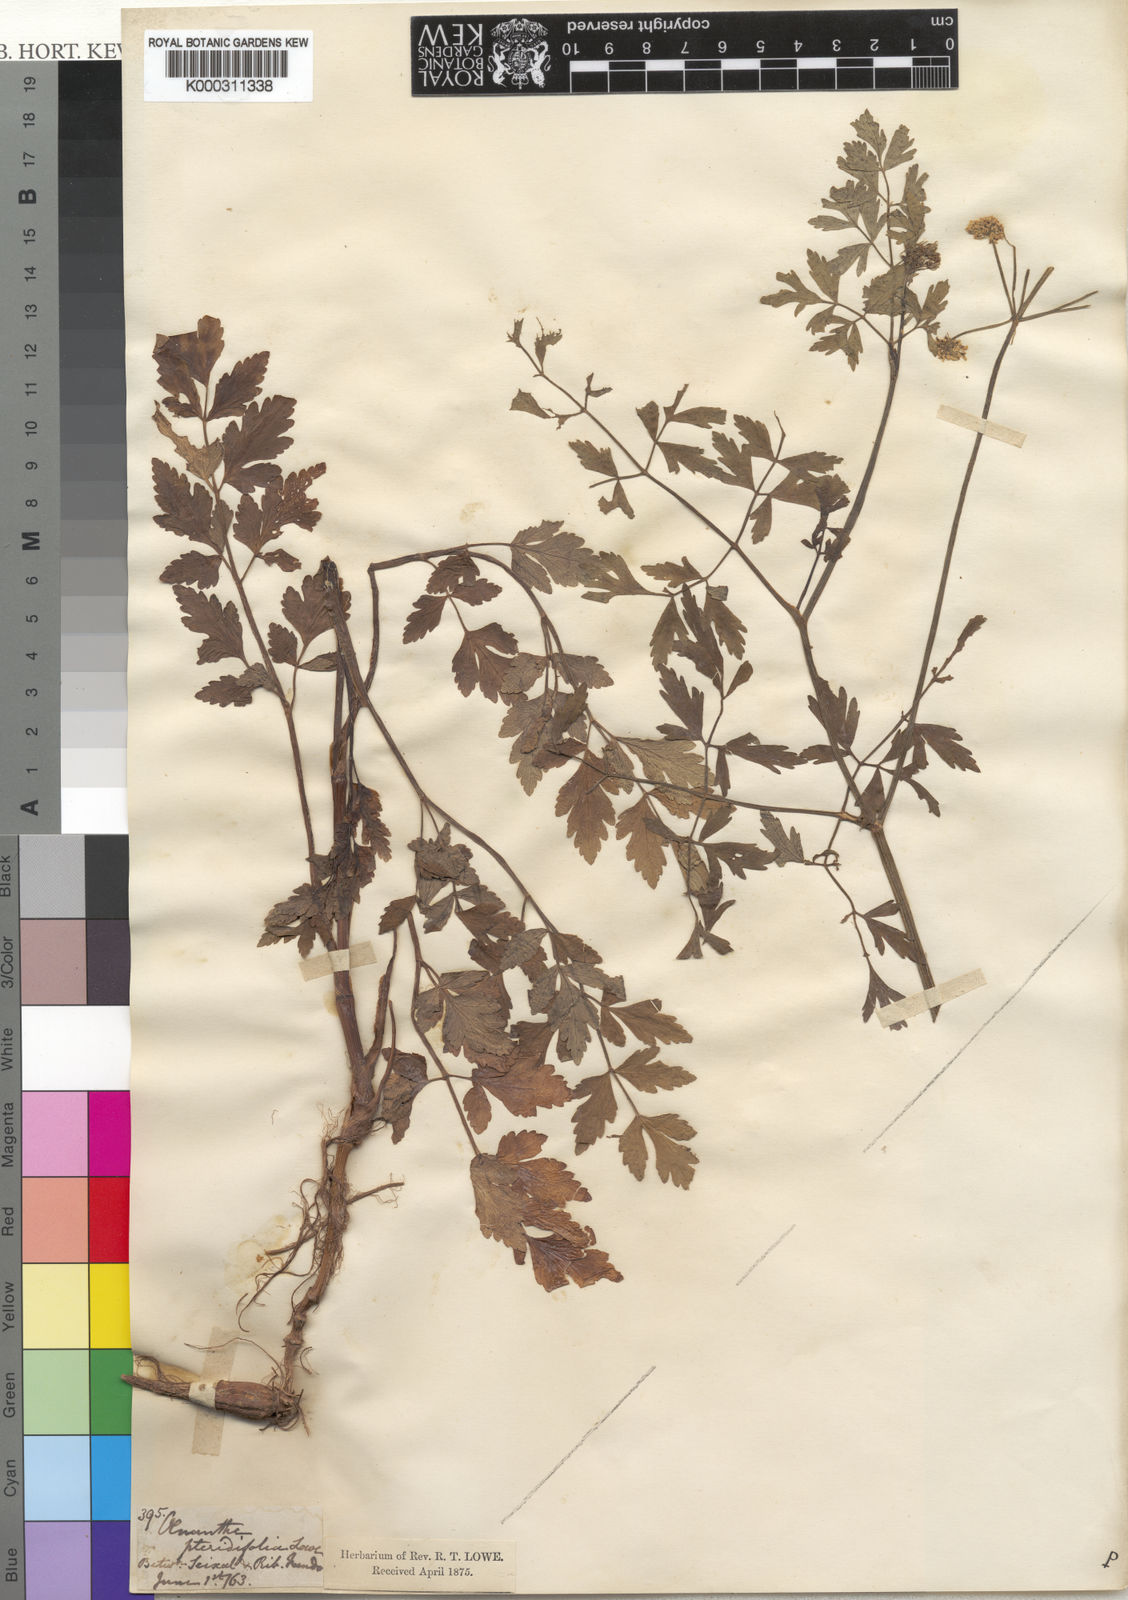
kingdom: Plantae
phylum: Tracheophyta
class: Magnoliopsida
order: Apiales
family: Apiaceae
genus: Oenanthe
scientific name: Oenanthe pteridifolia
